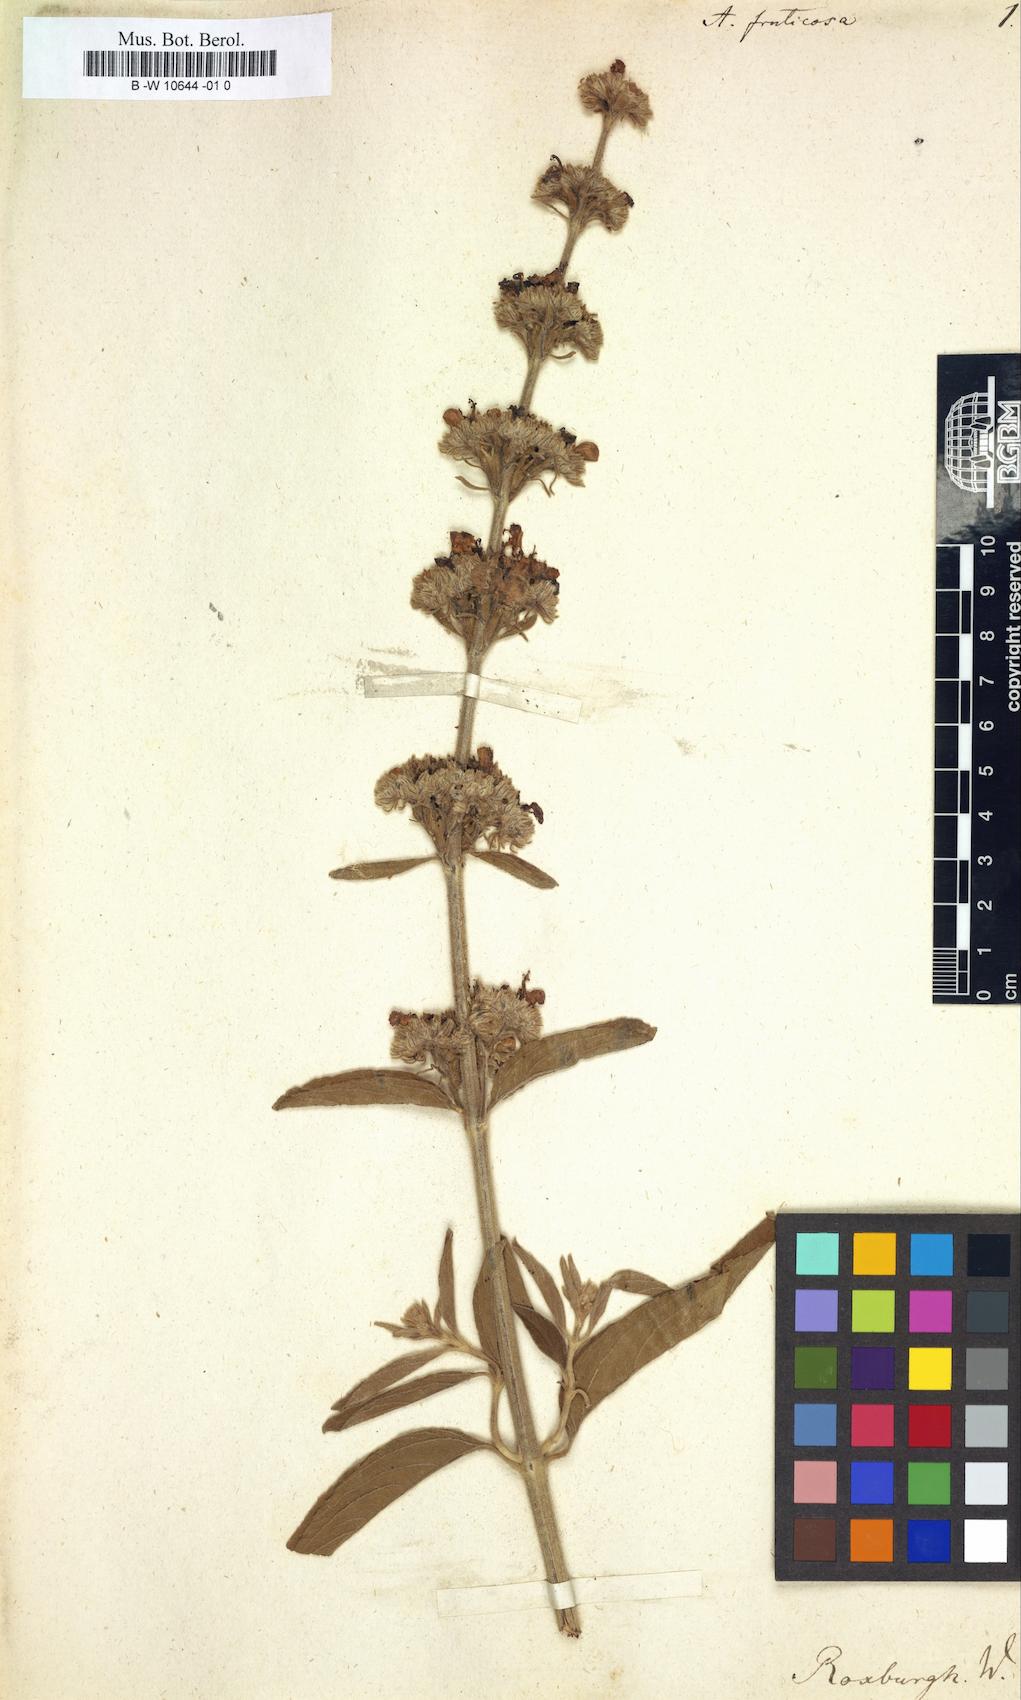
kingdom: Plantae
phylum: Tracheophyta
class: Magnoliopsida
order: Lamiales
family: Lamiaceae
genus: Anisomeles
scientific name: Anisomeles malabarica
